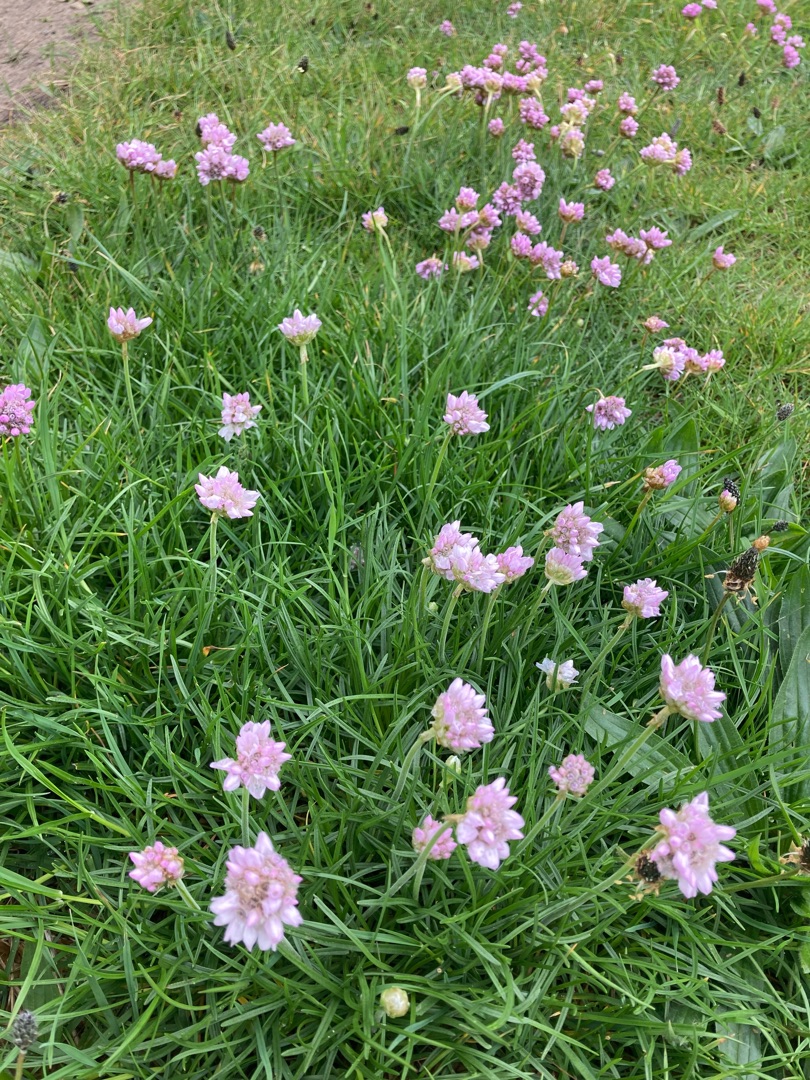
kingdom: Plantae
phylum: Tracheophyta
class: Magnoliopsida
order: Caryophyllales
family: Plumbaginaceae
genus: Armeria
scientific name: Armeria maritima
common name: Engelskgræs
